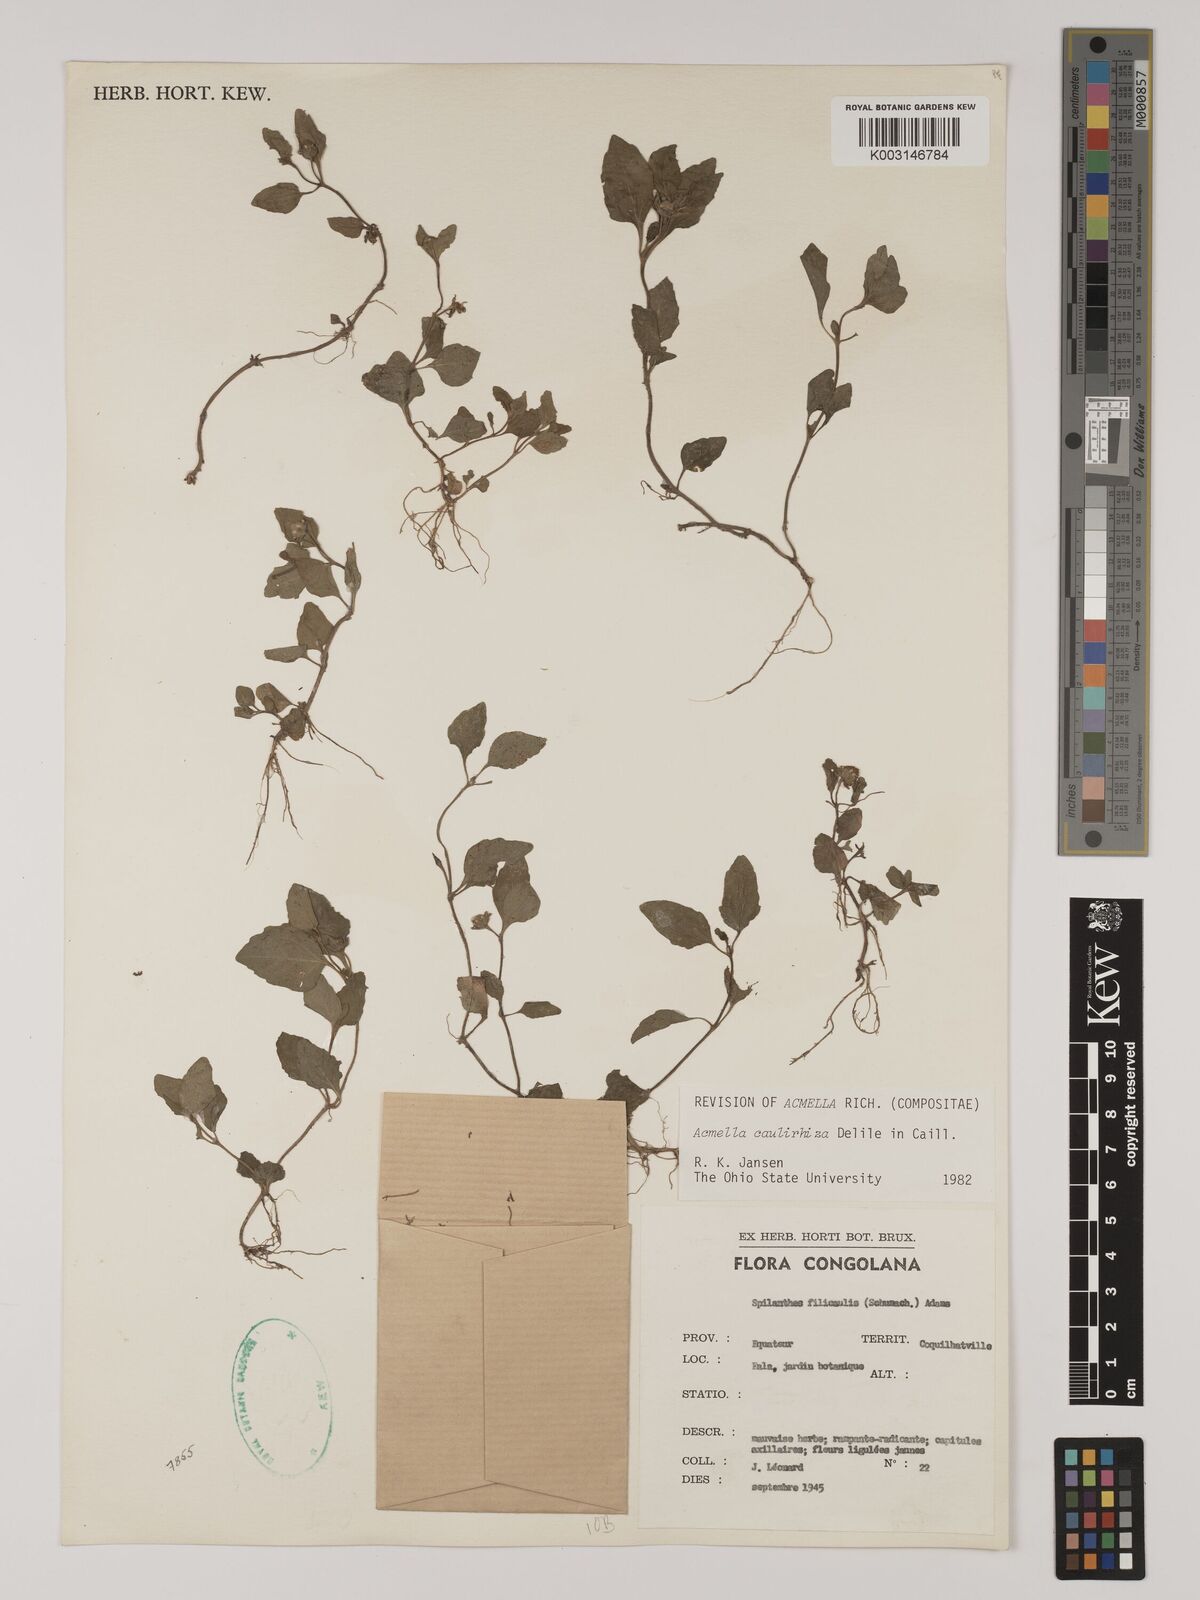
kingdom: Plantae
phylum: Tracheophyta
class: Magnoliopsida
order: Asterales
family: Asteraceae
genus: Acmella
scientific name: Acmella caulirhiza
